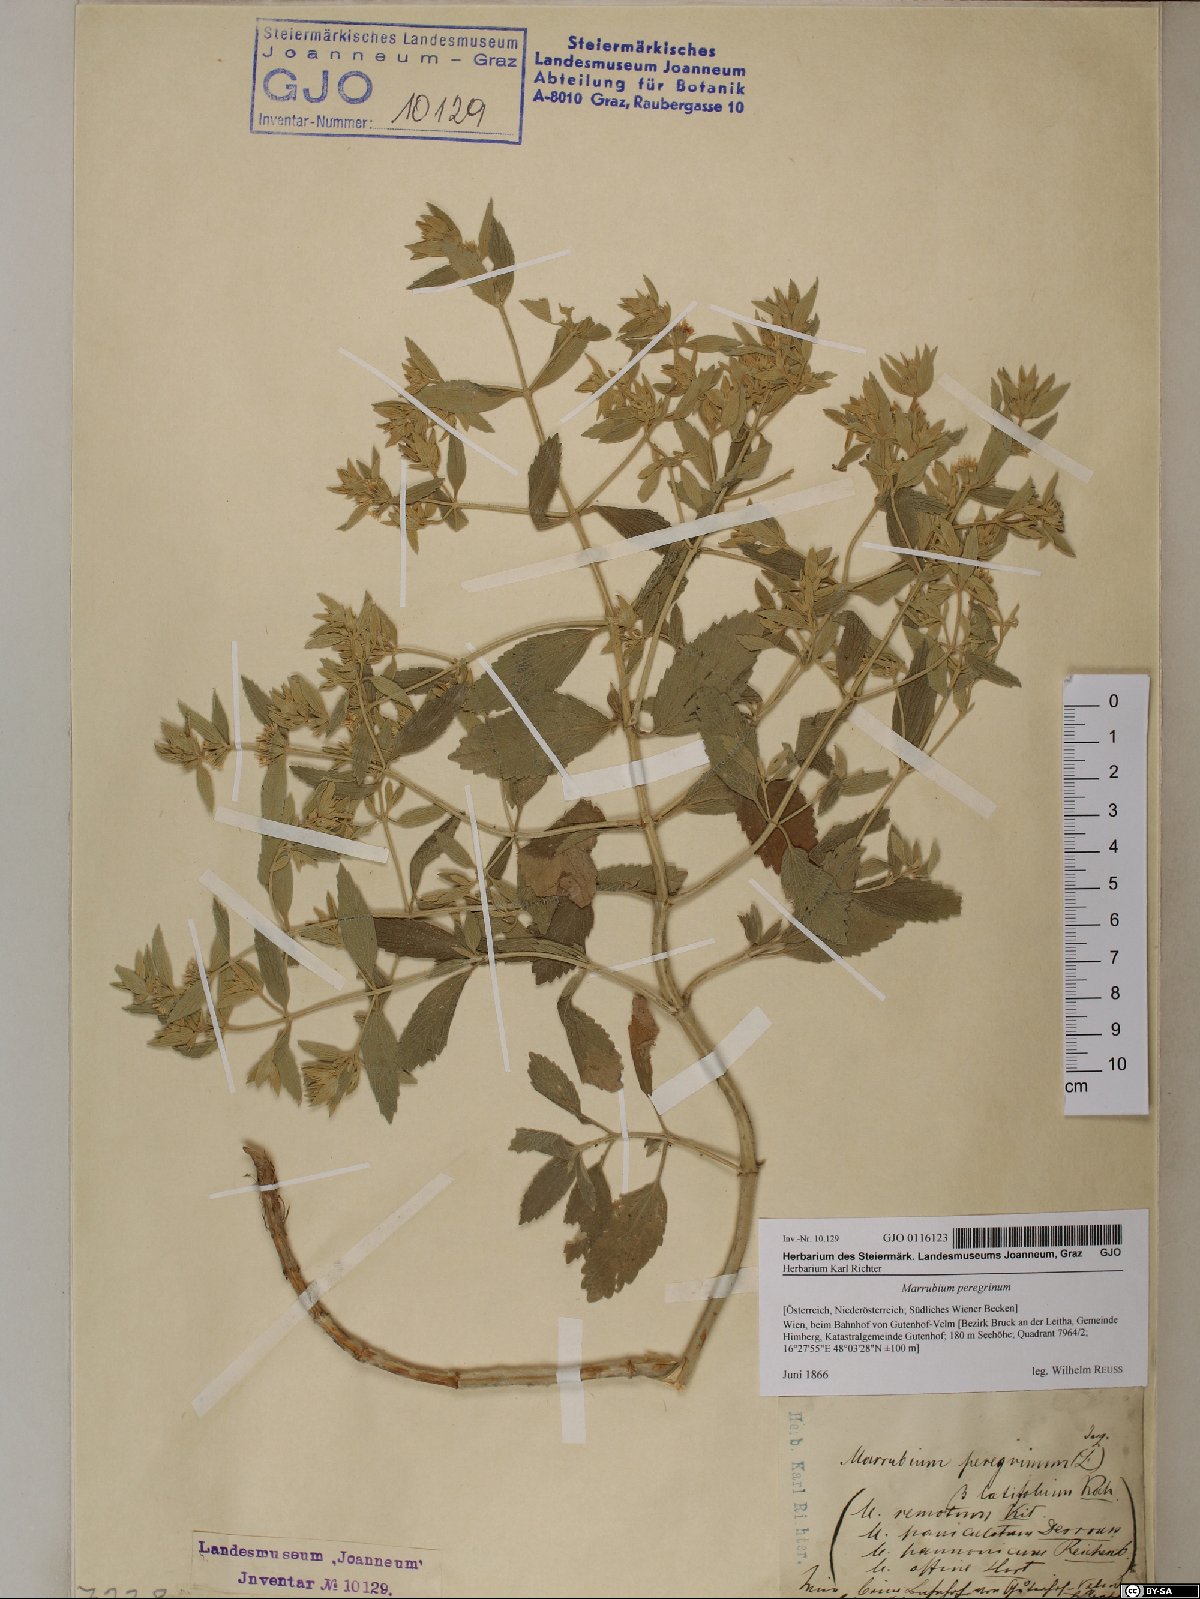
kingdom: Plantae
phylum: Tracheophyta
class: Magnoliopsida
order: Lamiales
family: Lamiaceae
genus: Marrubium
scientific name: Marrubium peregrinum
